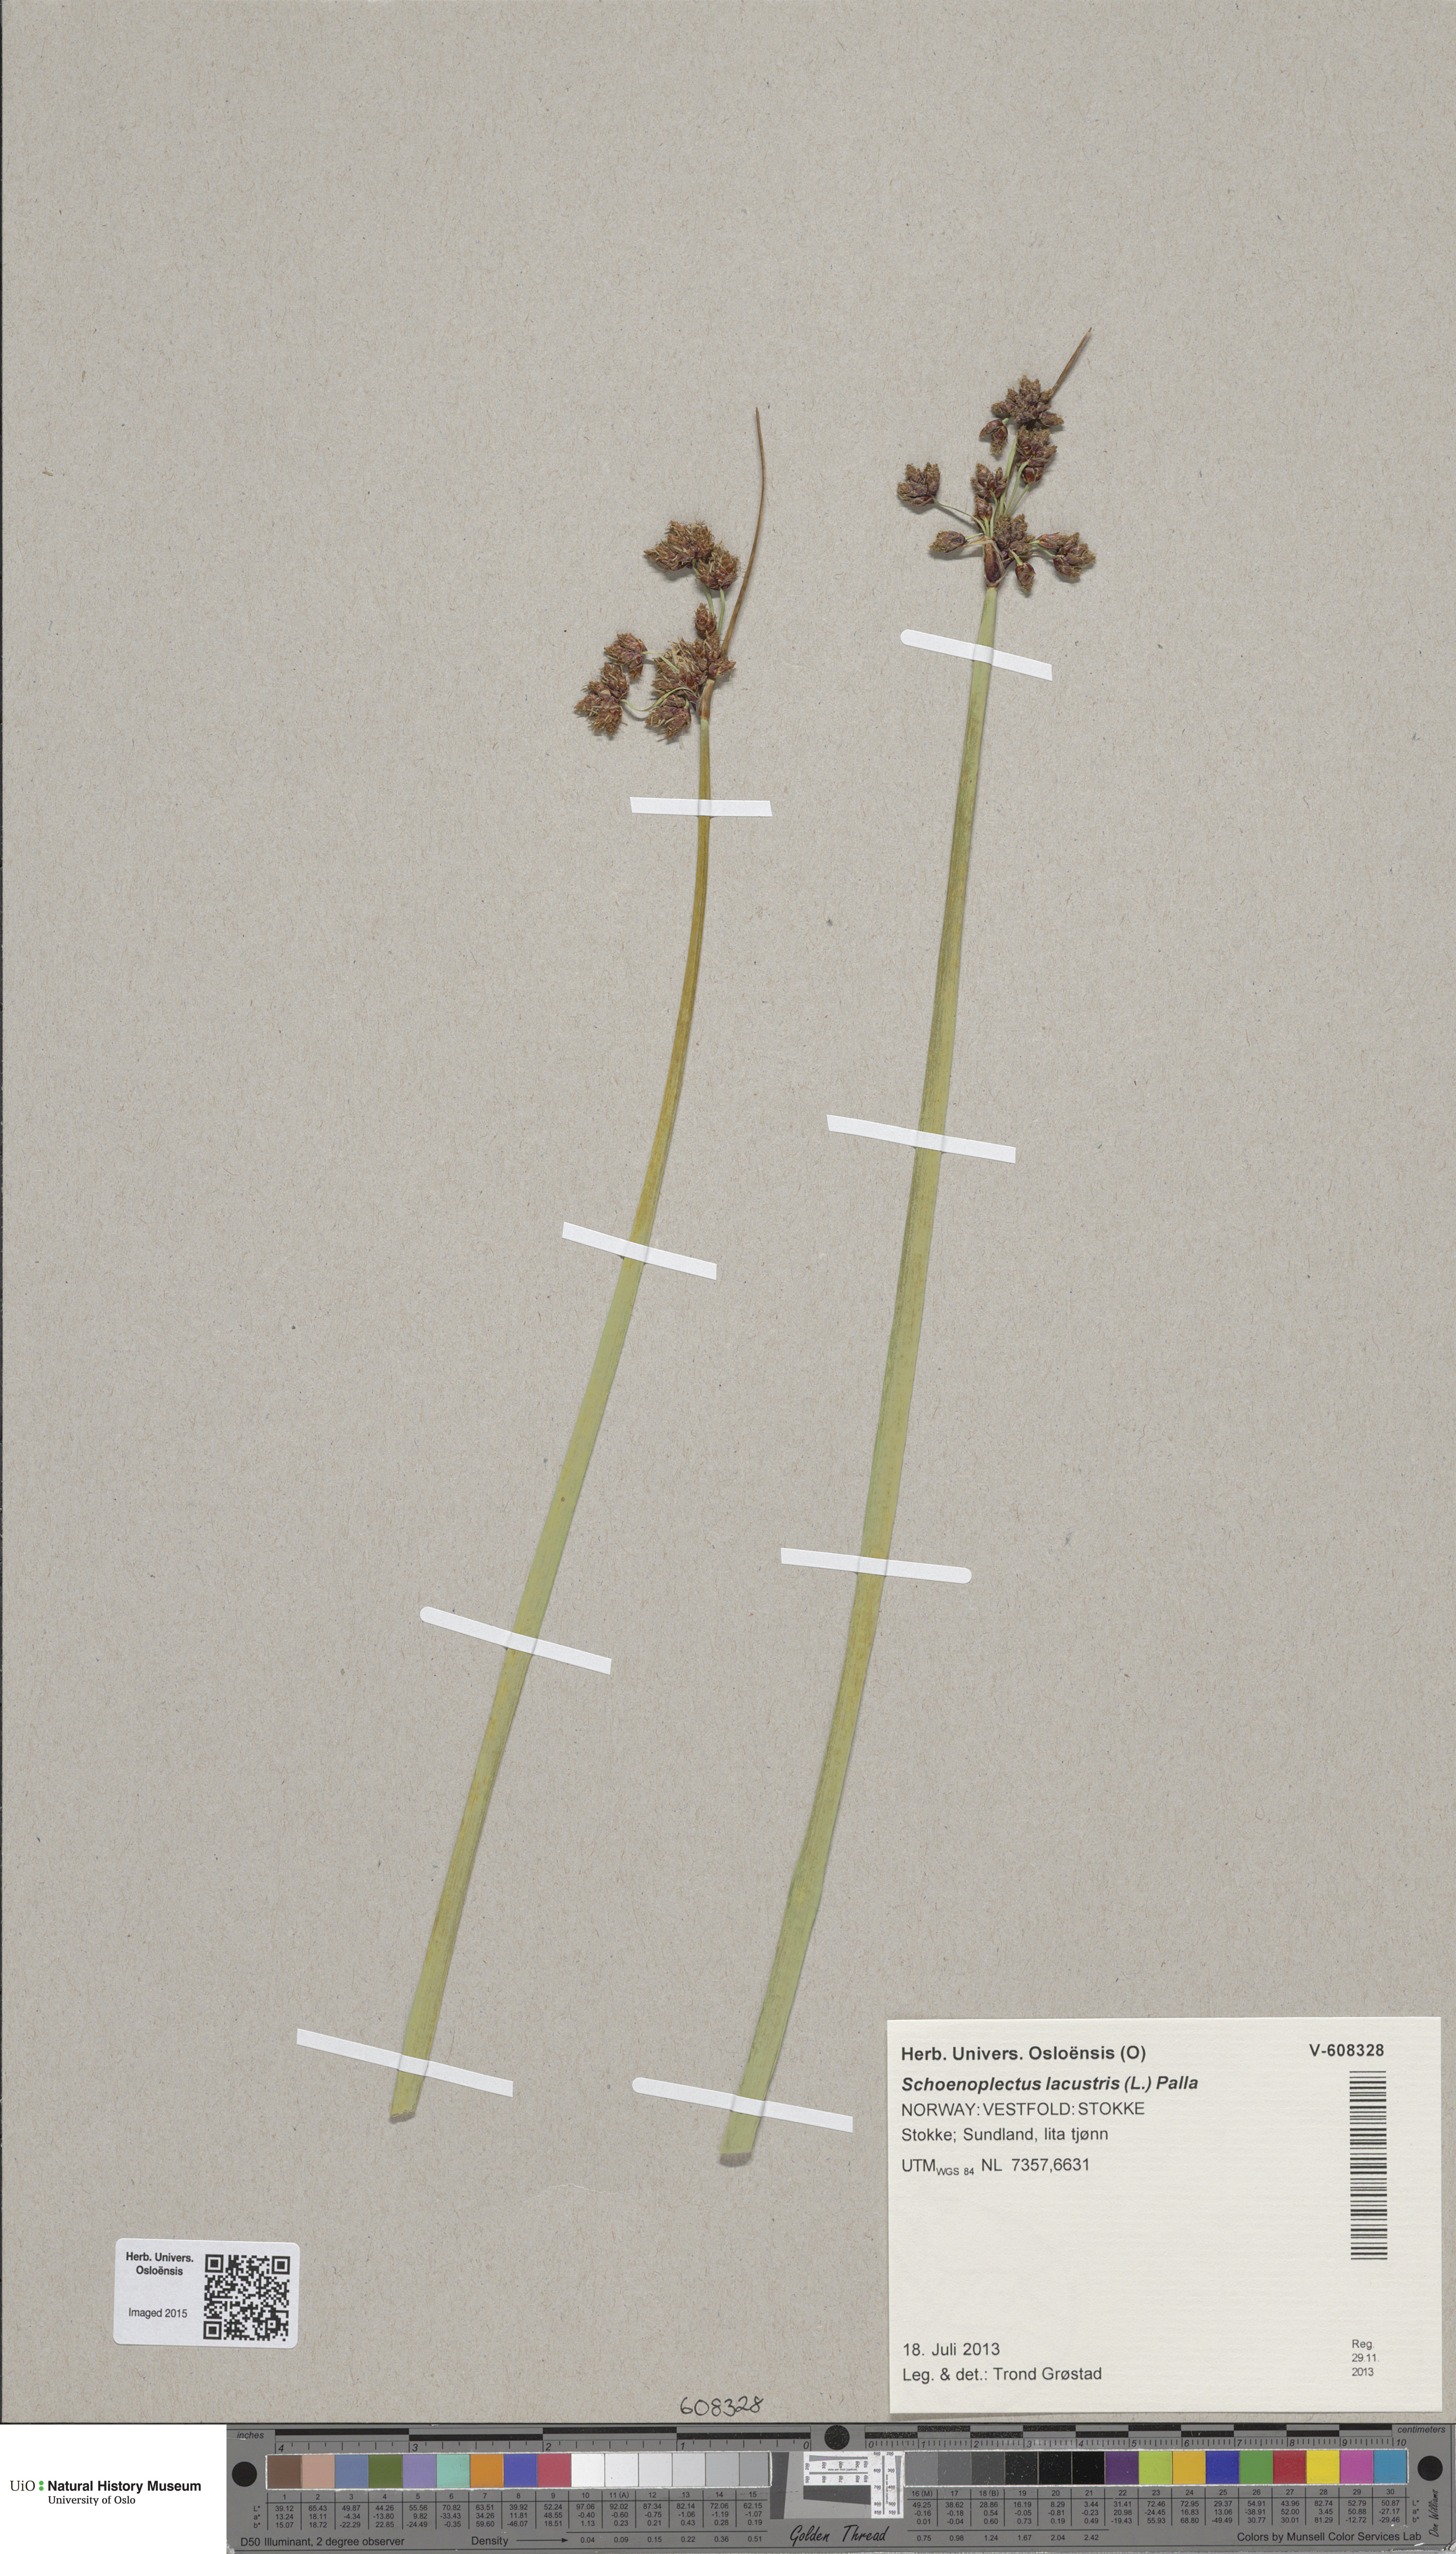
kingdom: Plantae
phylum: Tracheophyta
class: Liliopsida
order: Poales
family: Cyperaceae
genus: Schoenoplectus
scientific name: Schoenoplectus lacustris
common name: Common club-rush
